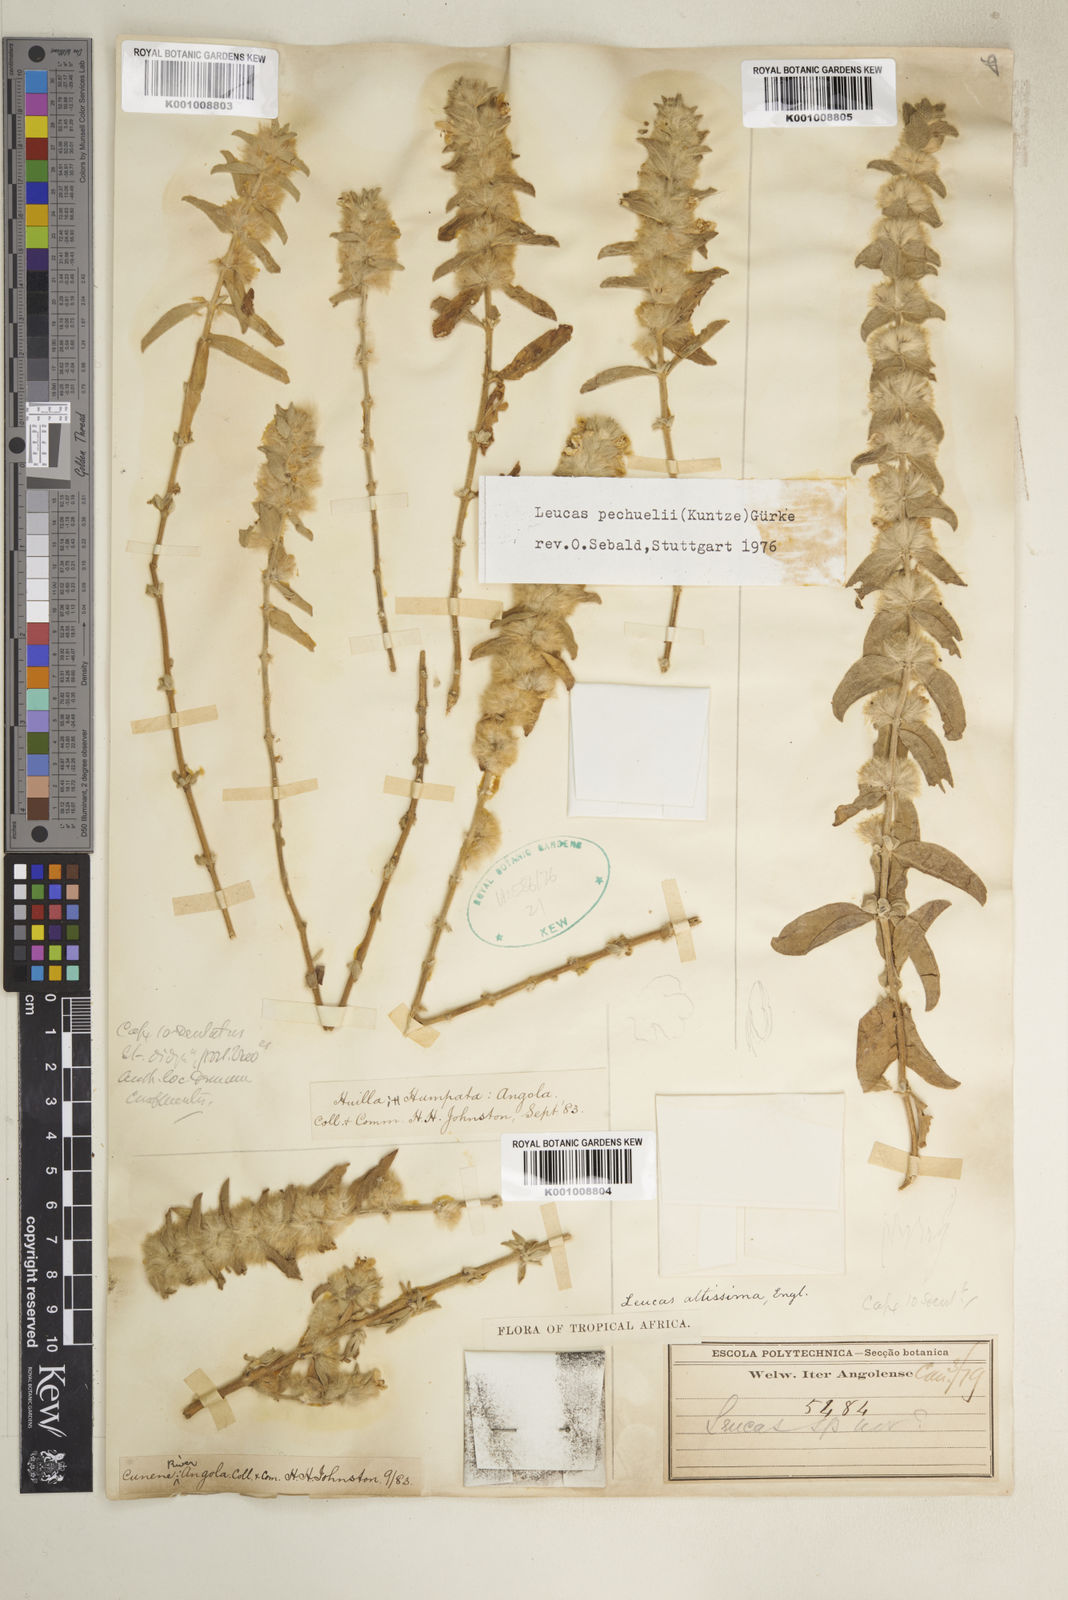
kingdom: Plantae
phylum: Tracheophyta
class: Magnoliopsida
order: Lamiales
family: Lamiaceae
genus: Leucas
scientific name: Leucas pechuelii
